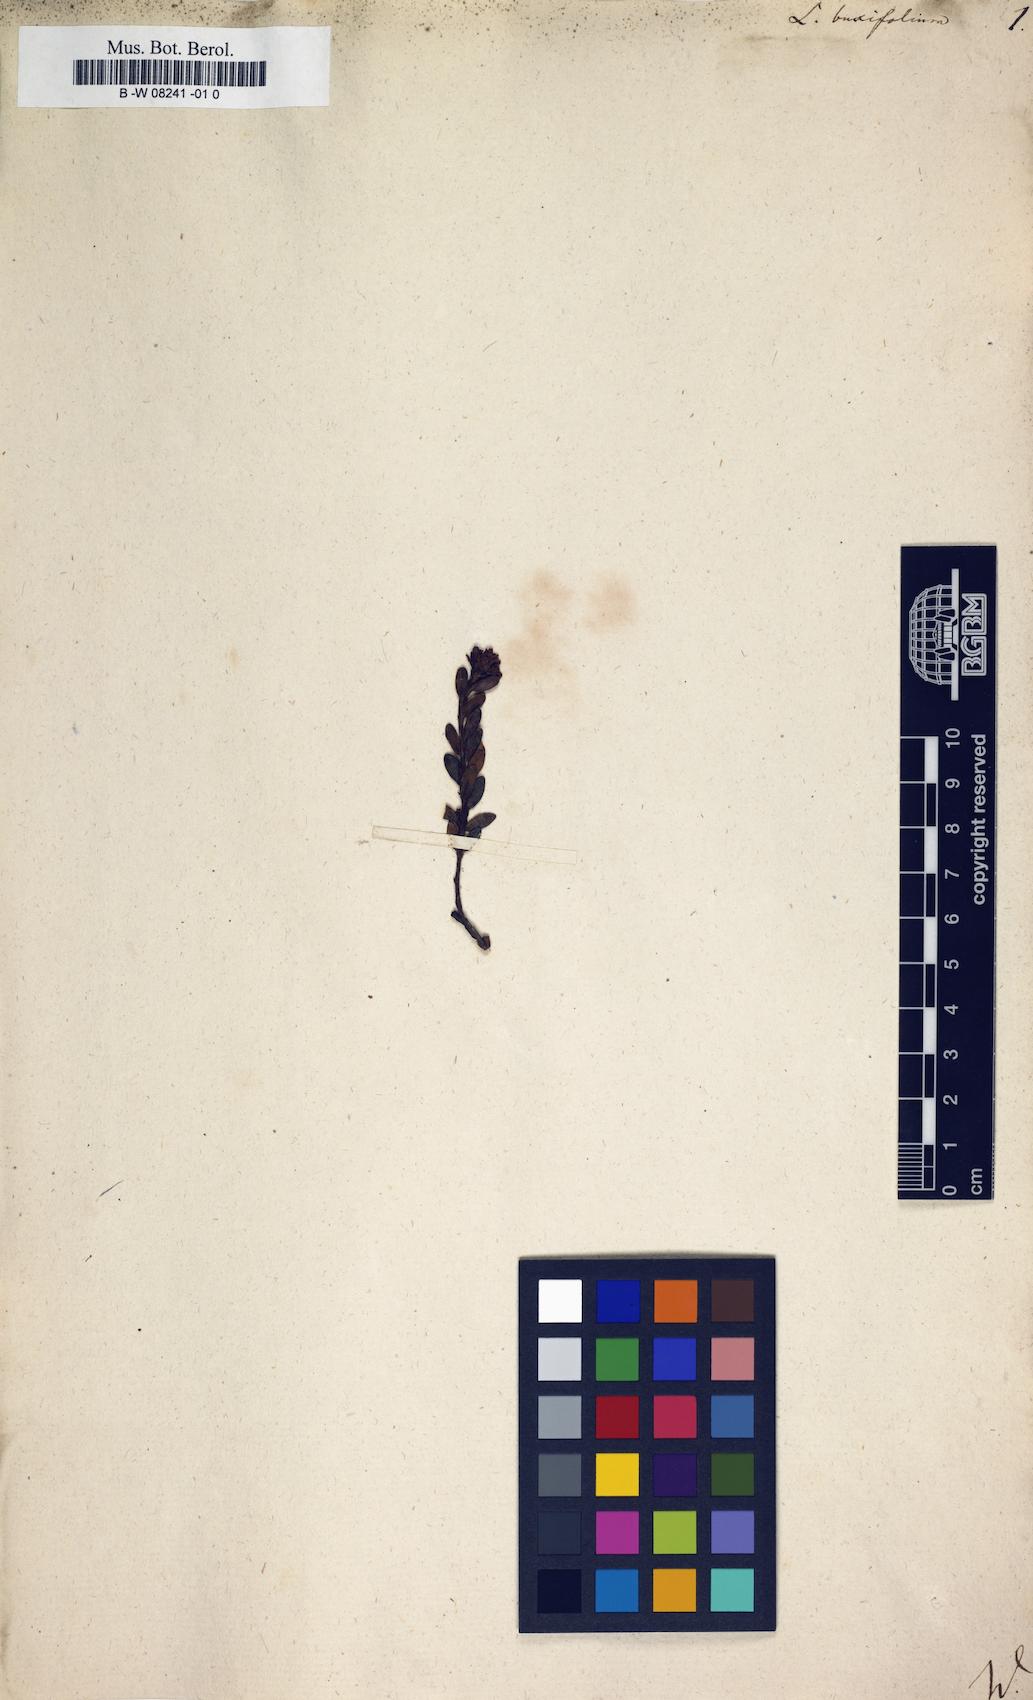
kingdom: Plantae
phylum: Tracheophyta
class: Magnoliopsida
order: Ericales
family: Ericaceae
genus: Kalmia
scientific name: Kalmia buxifolia
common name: Sandmyrtle
